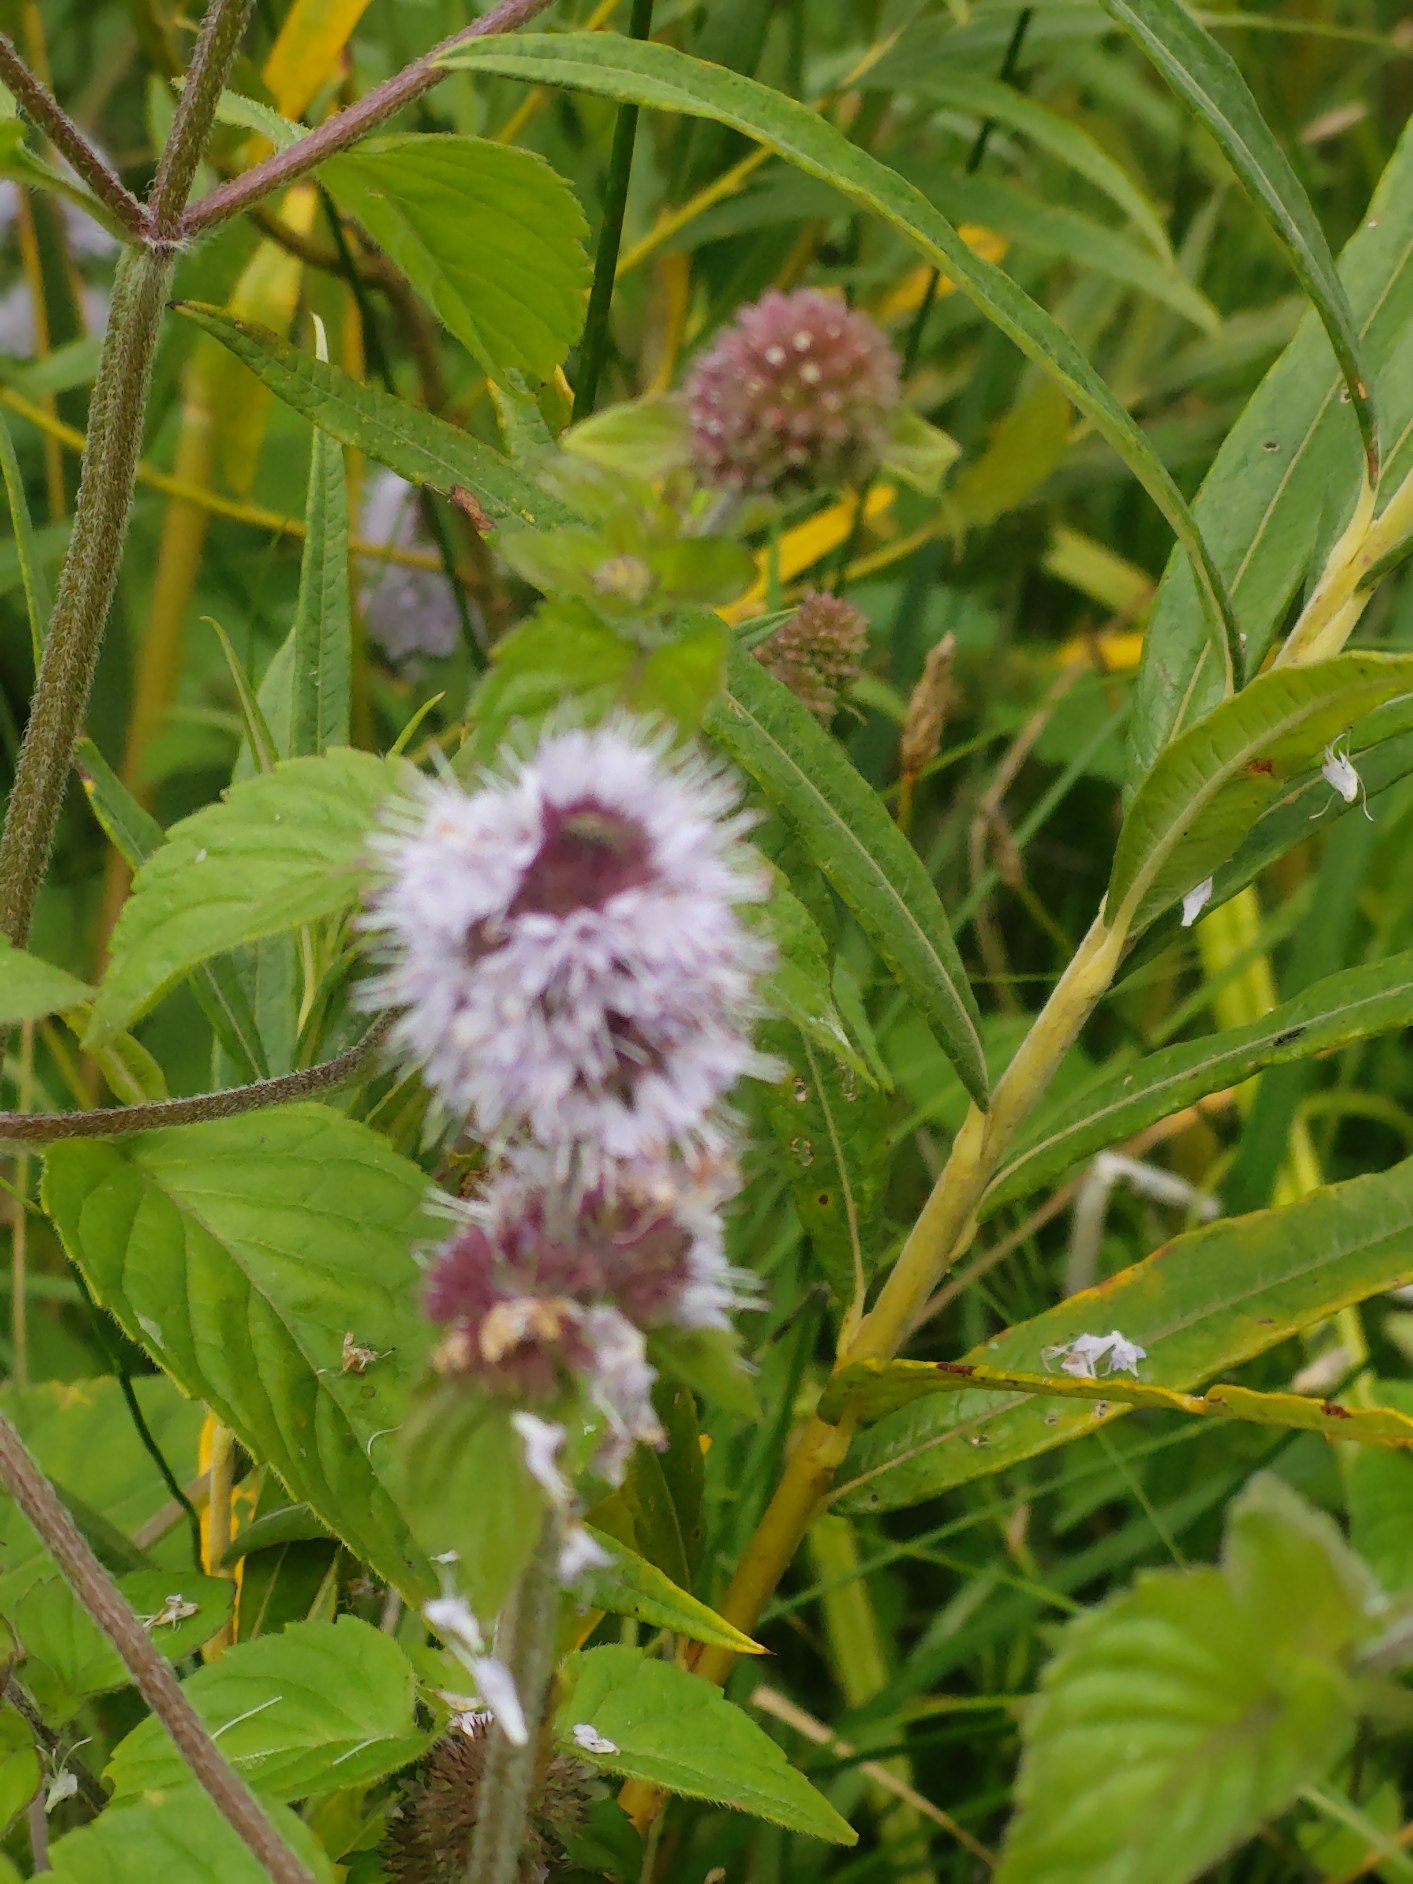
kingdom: Plantae
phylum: Tracheophyta
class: Magnoliopsida
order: Lamiales
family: Lamiaceae
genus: Mentha
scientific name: Mentha aquatica
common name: Vand-mynte
